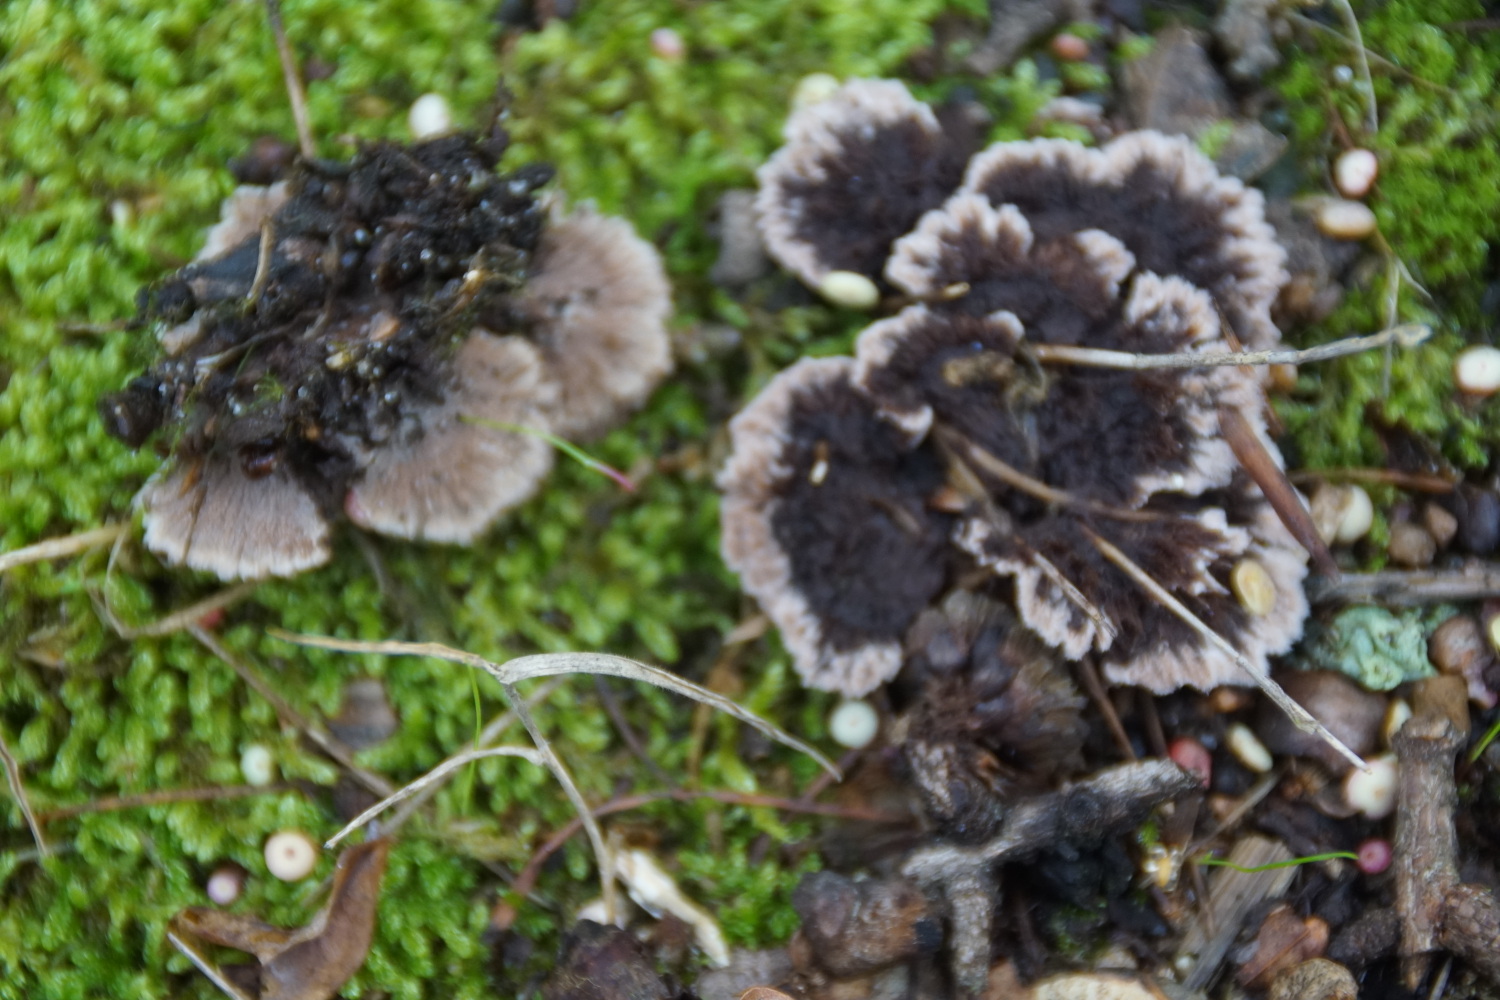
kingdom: Fungi
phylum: Basidiomycota
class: Agaricomycetes
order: Thelephorales
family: Thelephoraceae
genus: Thelephora
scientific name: Thelephora terrestris
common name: fliget frynsesvamp
